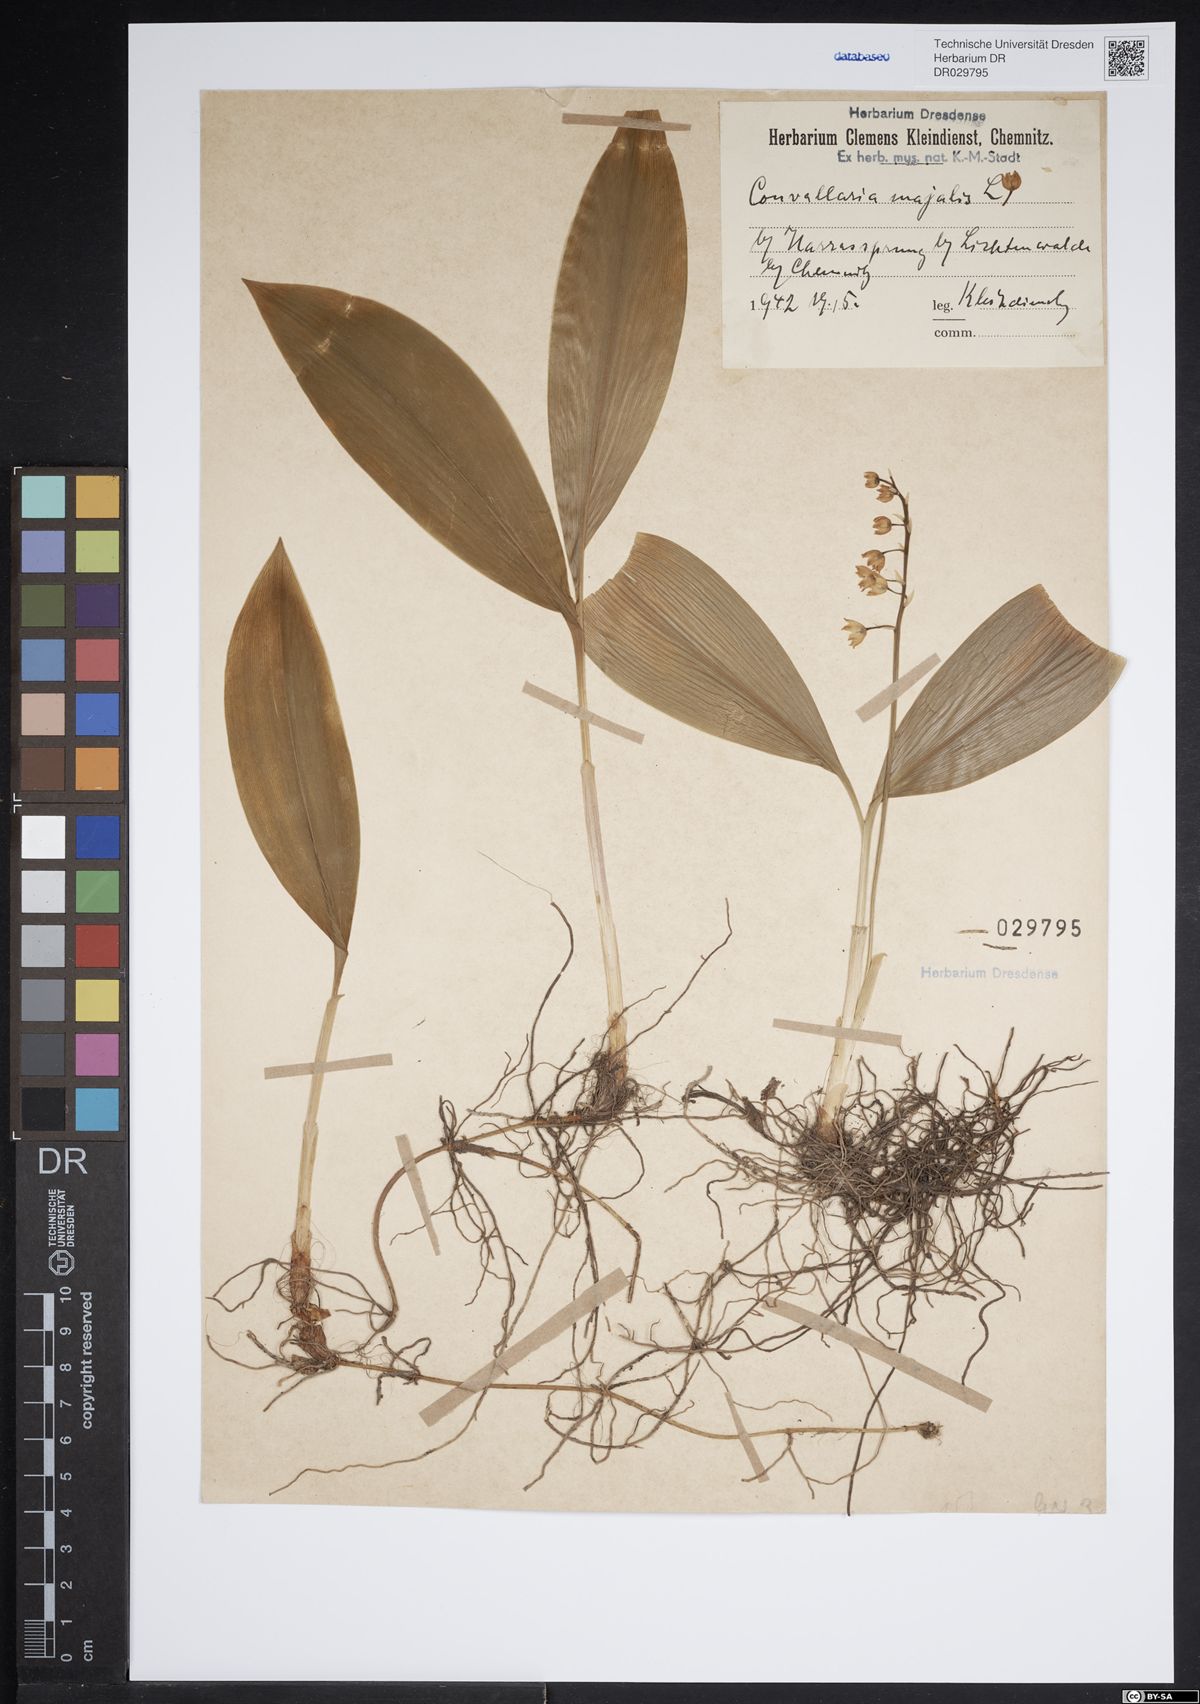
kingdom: Plantae
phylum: Tracheophyta
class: Liliopsida
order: Asparagales
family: Asparagaceae
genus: Convallaria
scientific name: Convallaria majalis
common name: Lily-of-the-valley
